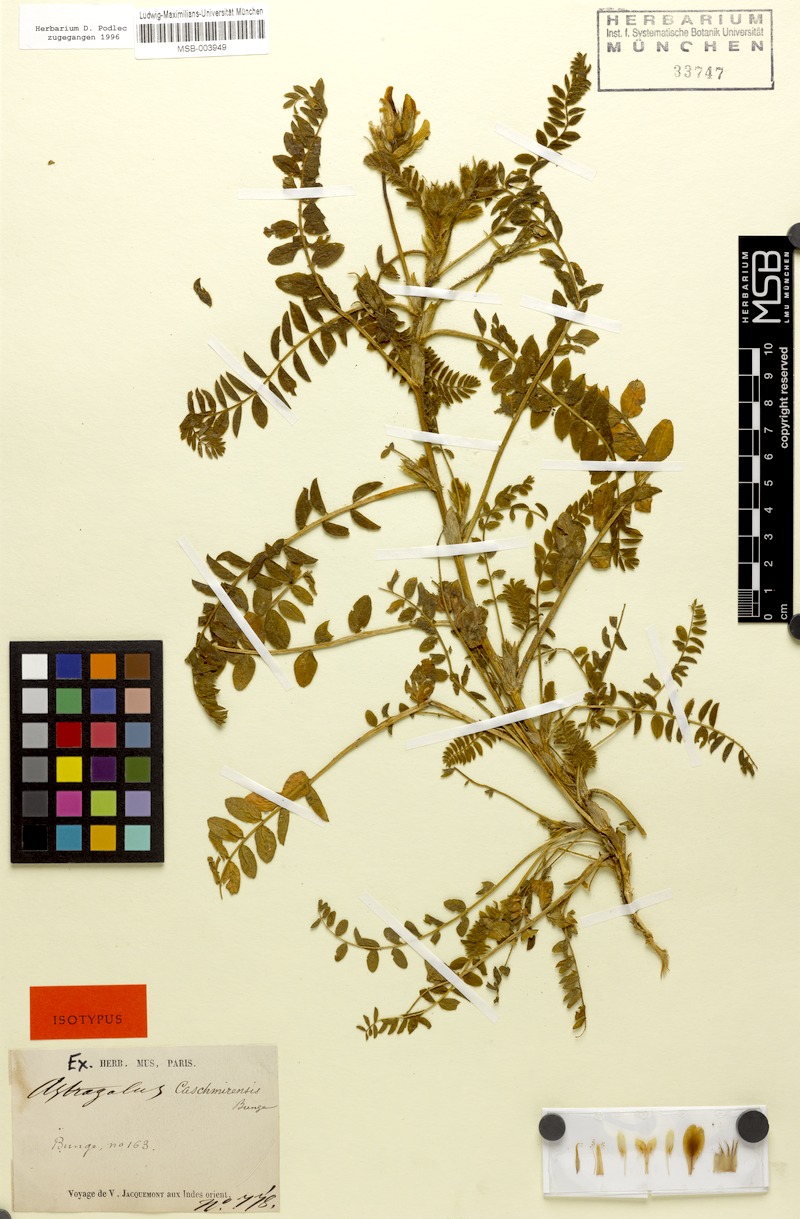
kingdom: Plantae
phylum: Tracheophyta
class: Magnoliopsida
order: Fabales
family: Fabaceae
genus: Astragalus
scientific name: Astragalus kashmirensis
